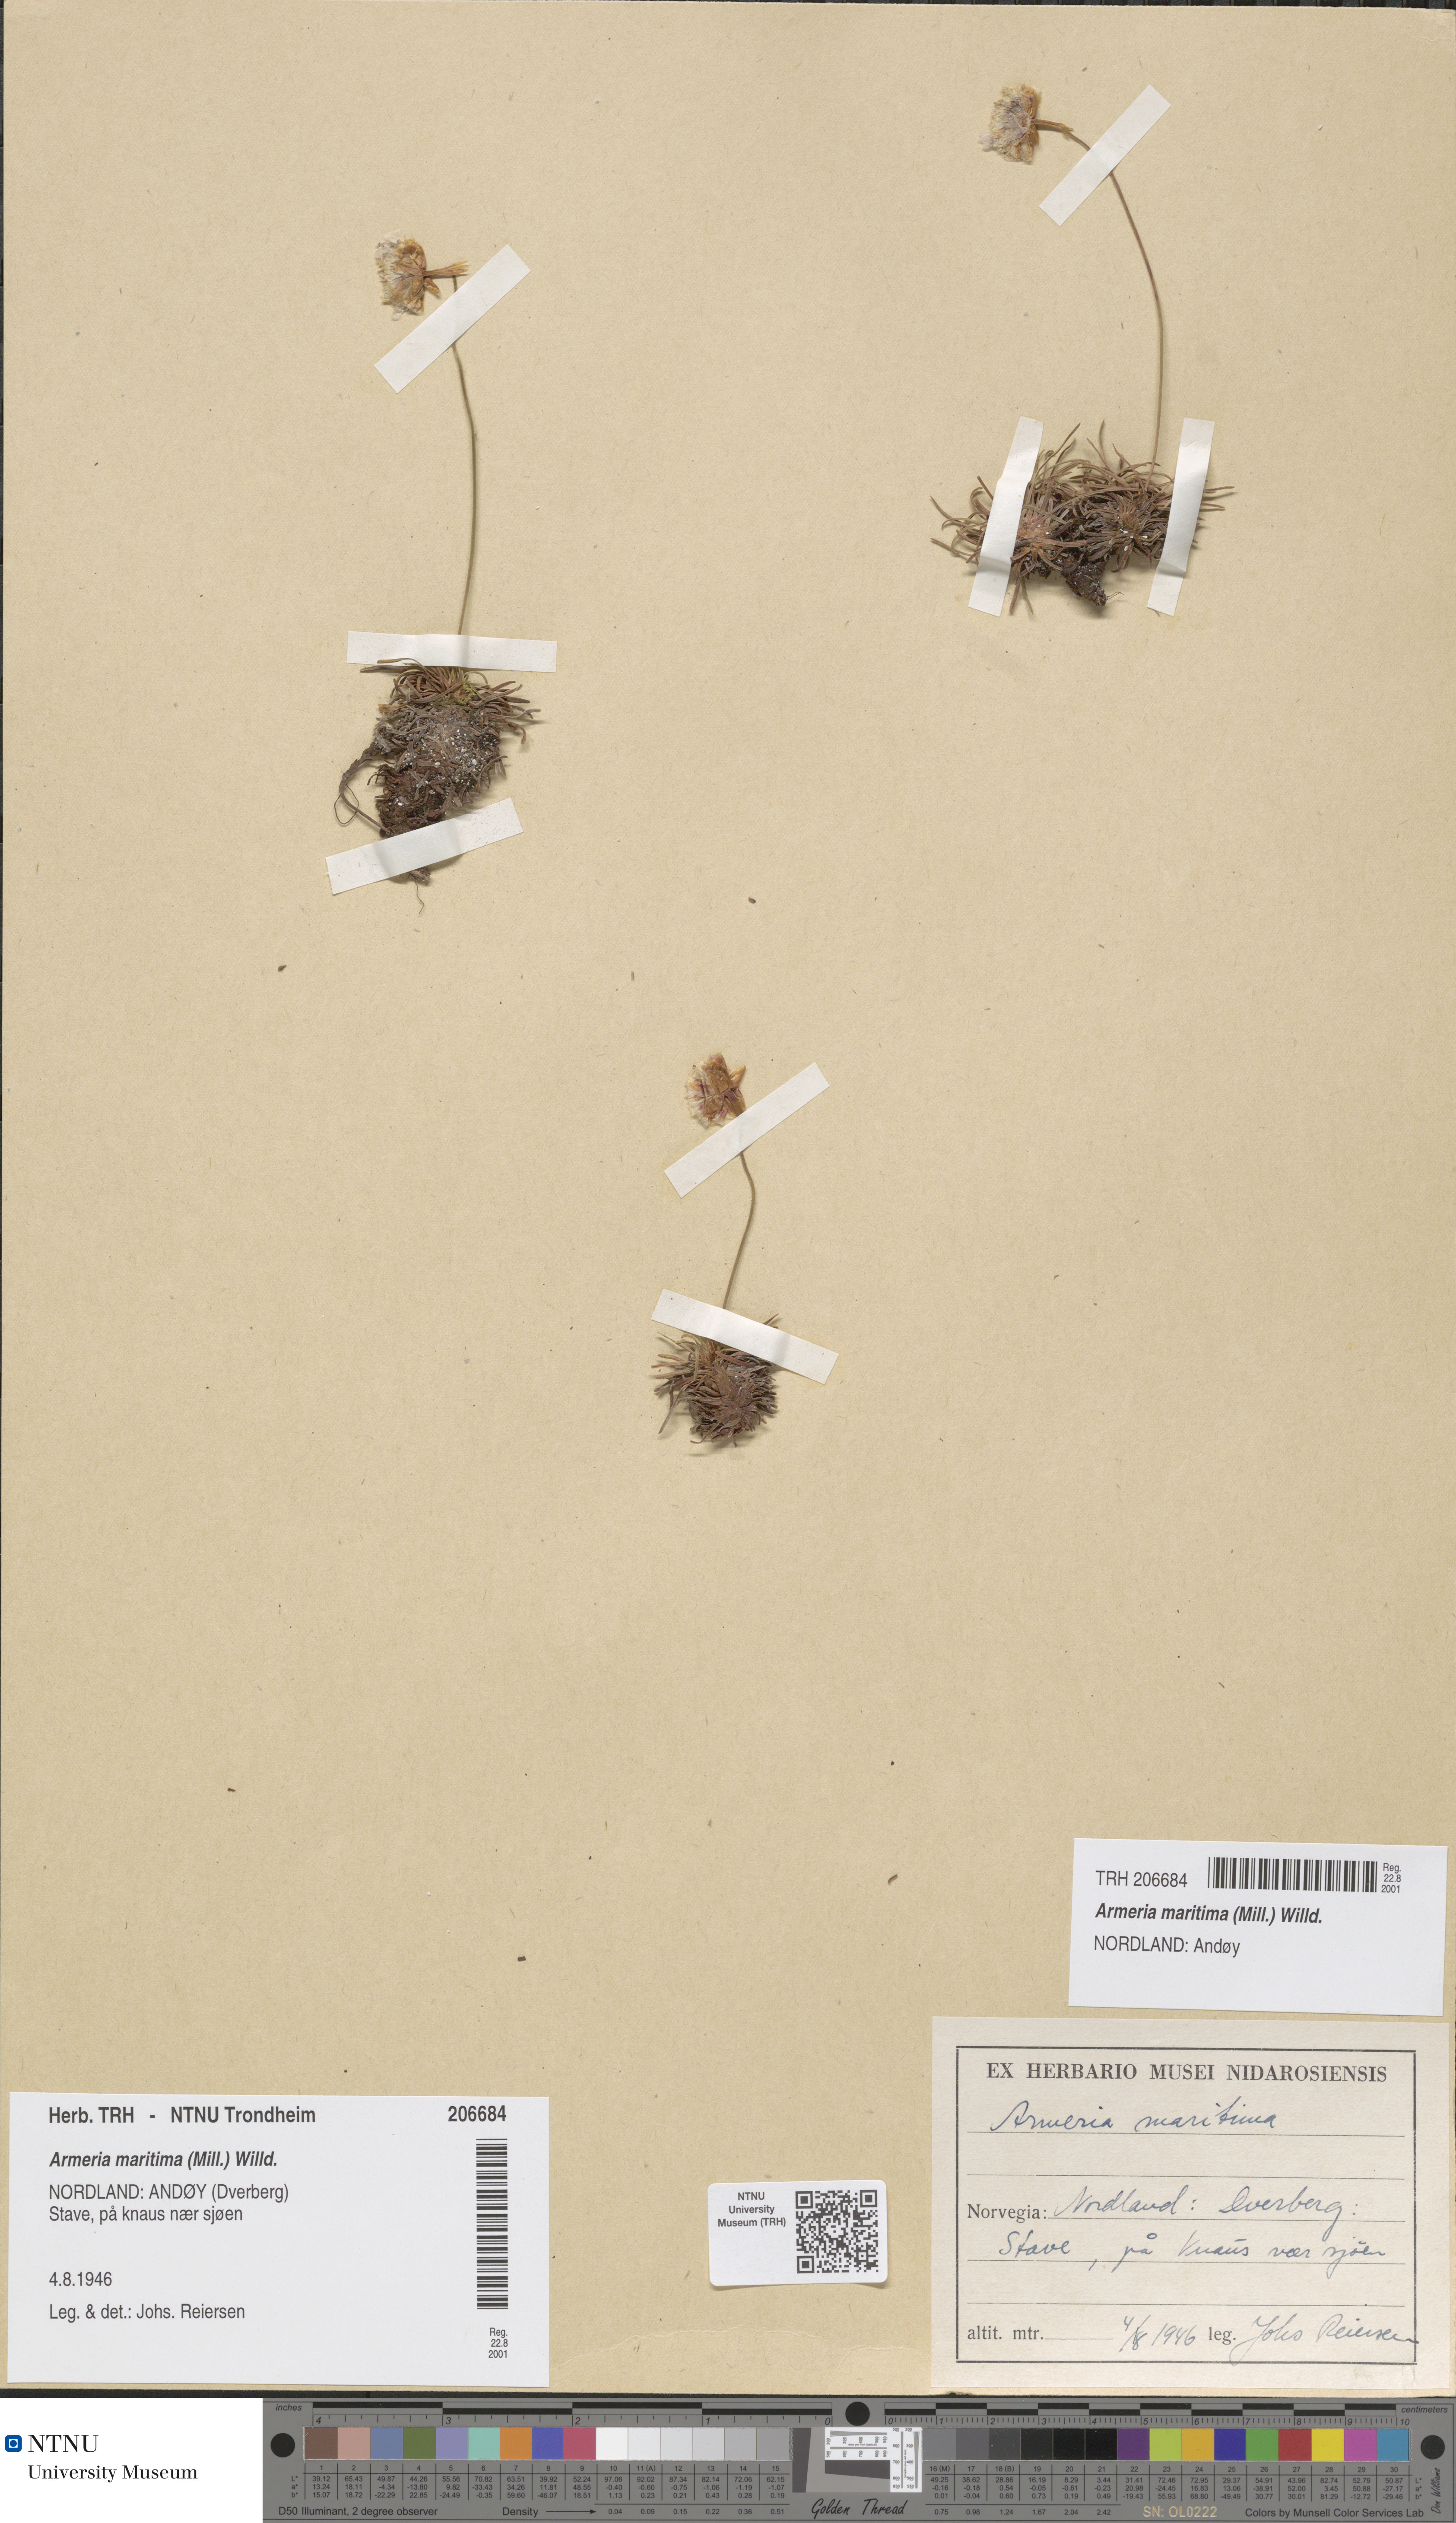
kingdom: Plantae
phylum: Tracheophyta
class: Magnoliopsida
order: Caryophyllales
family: Plumbaginaceae
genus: Armeria
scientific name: Armeria maritima
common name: Thrift
